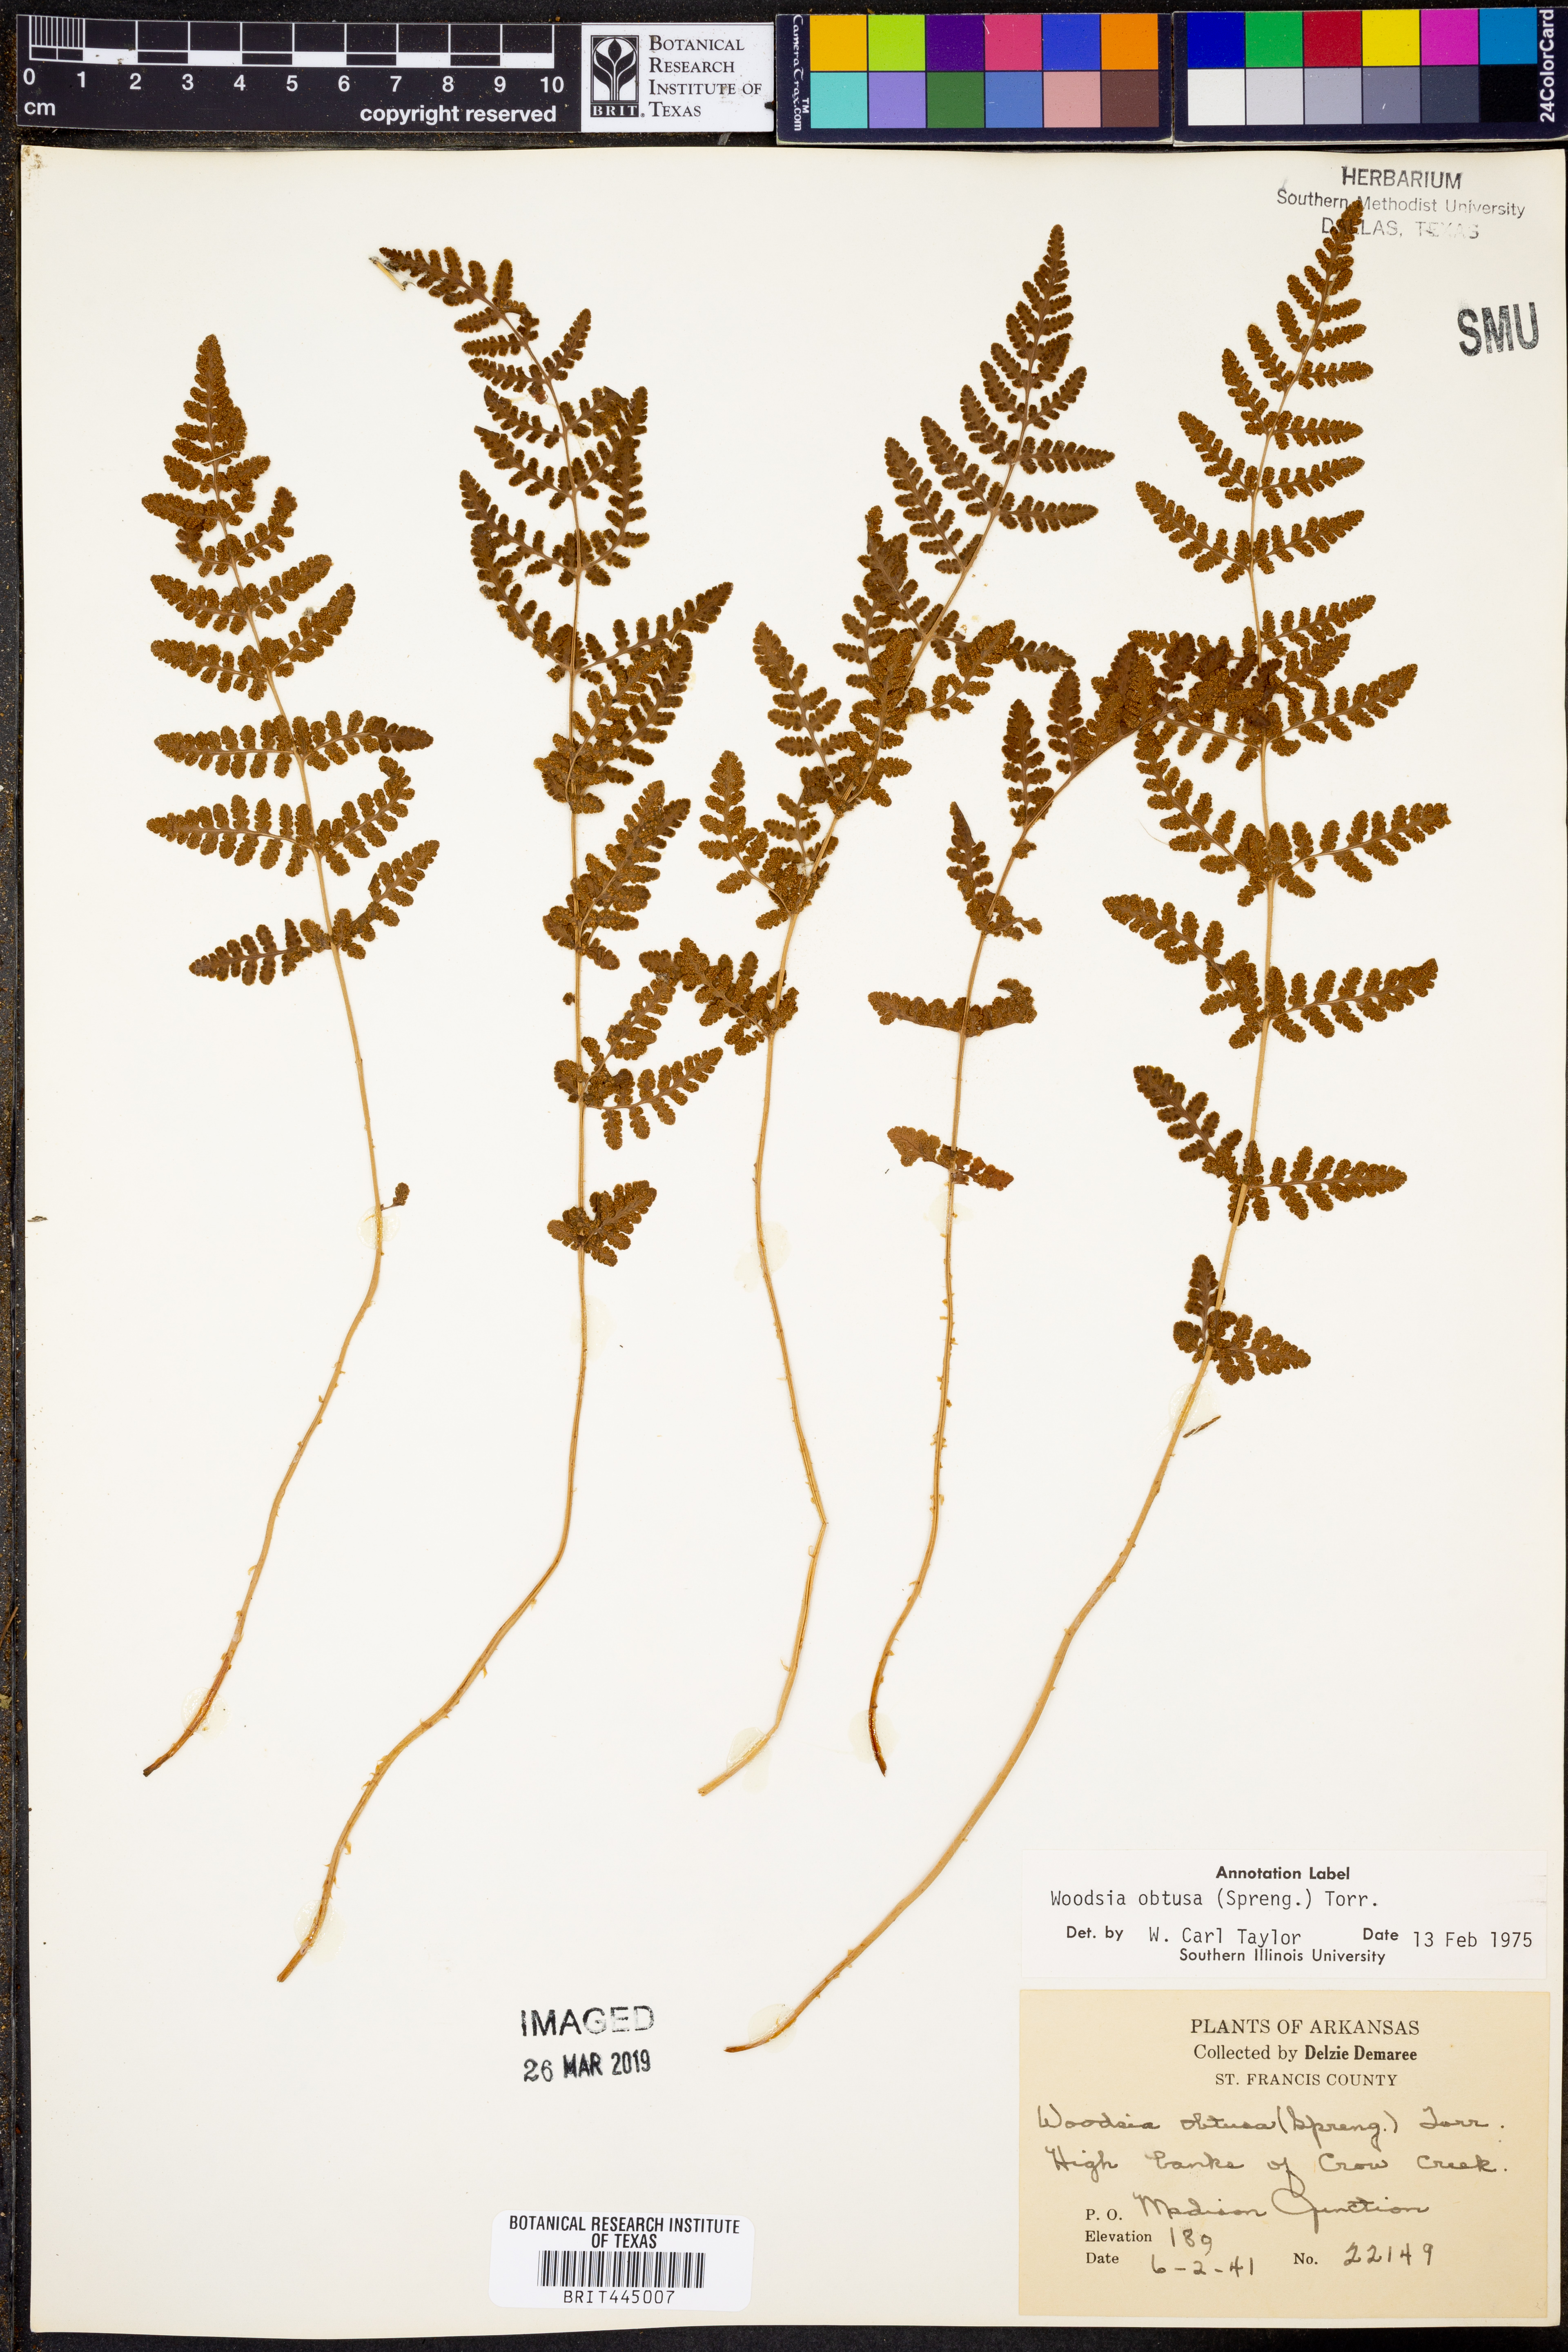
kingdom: Plantae
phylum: Tracheophyta
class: Polypodiopsida
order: Polypodiales
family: Woodsiaceae
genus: Physematium
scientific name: Physematium obtusum
